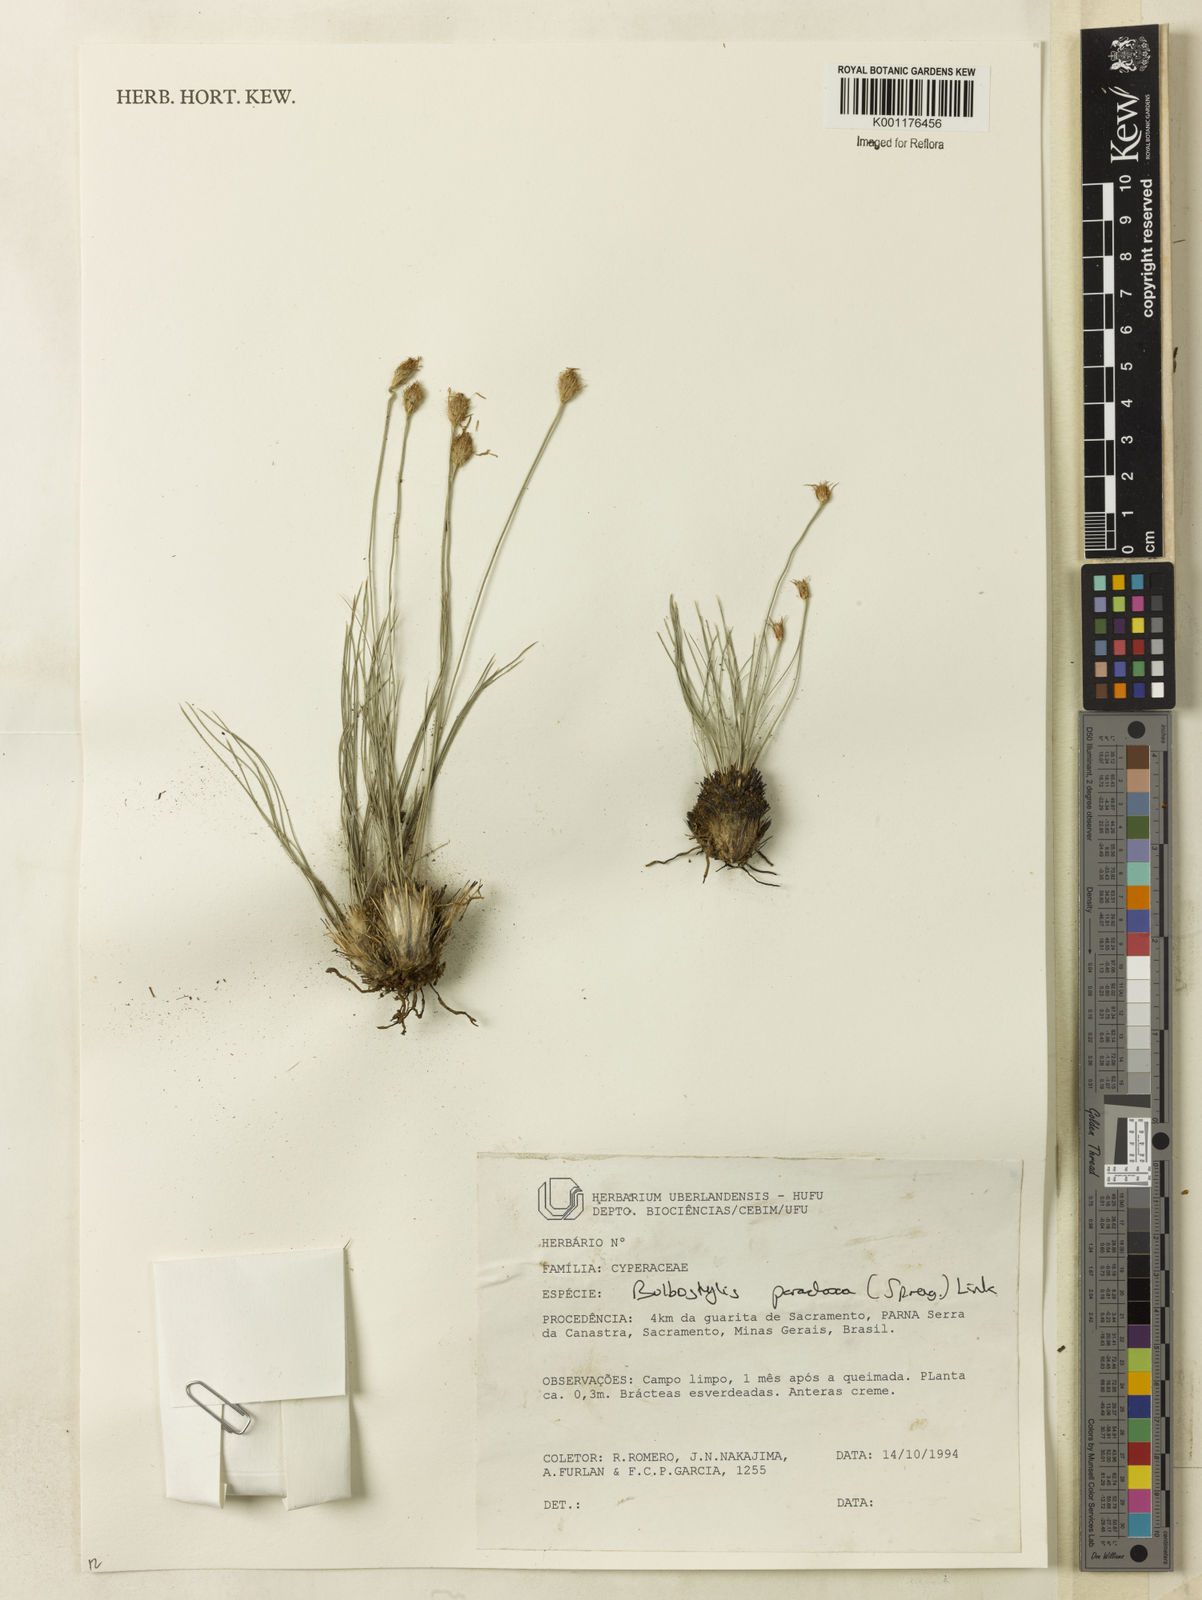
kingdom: Plantae
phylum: Tracheophyta
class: Liliopsida
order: Poales
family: Cyperaceae
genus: Bulbostylis
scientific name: Bulbostylis paradoxa
